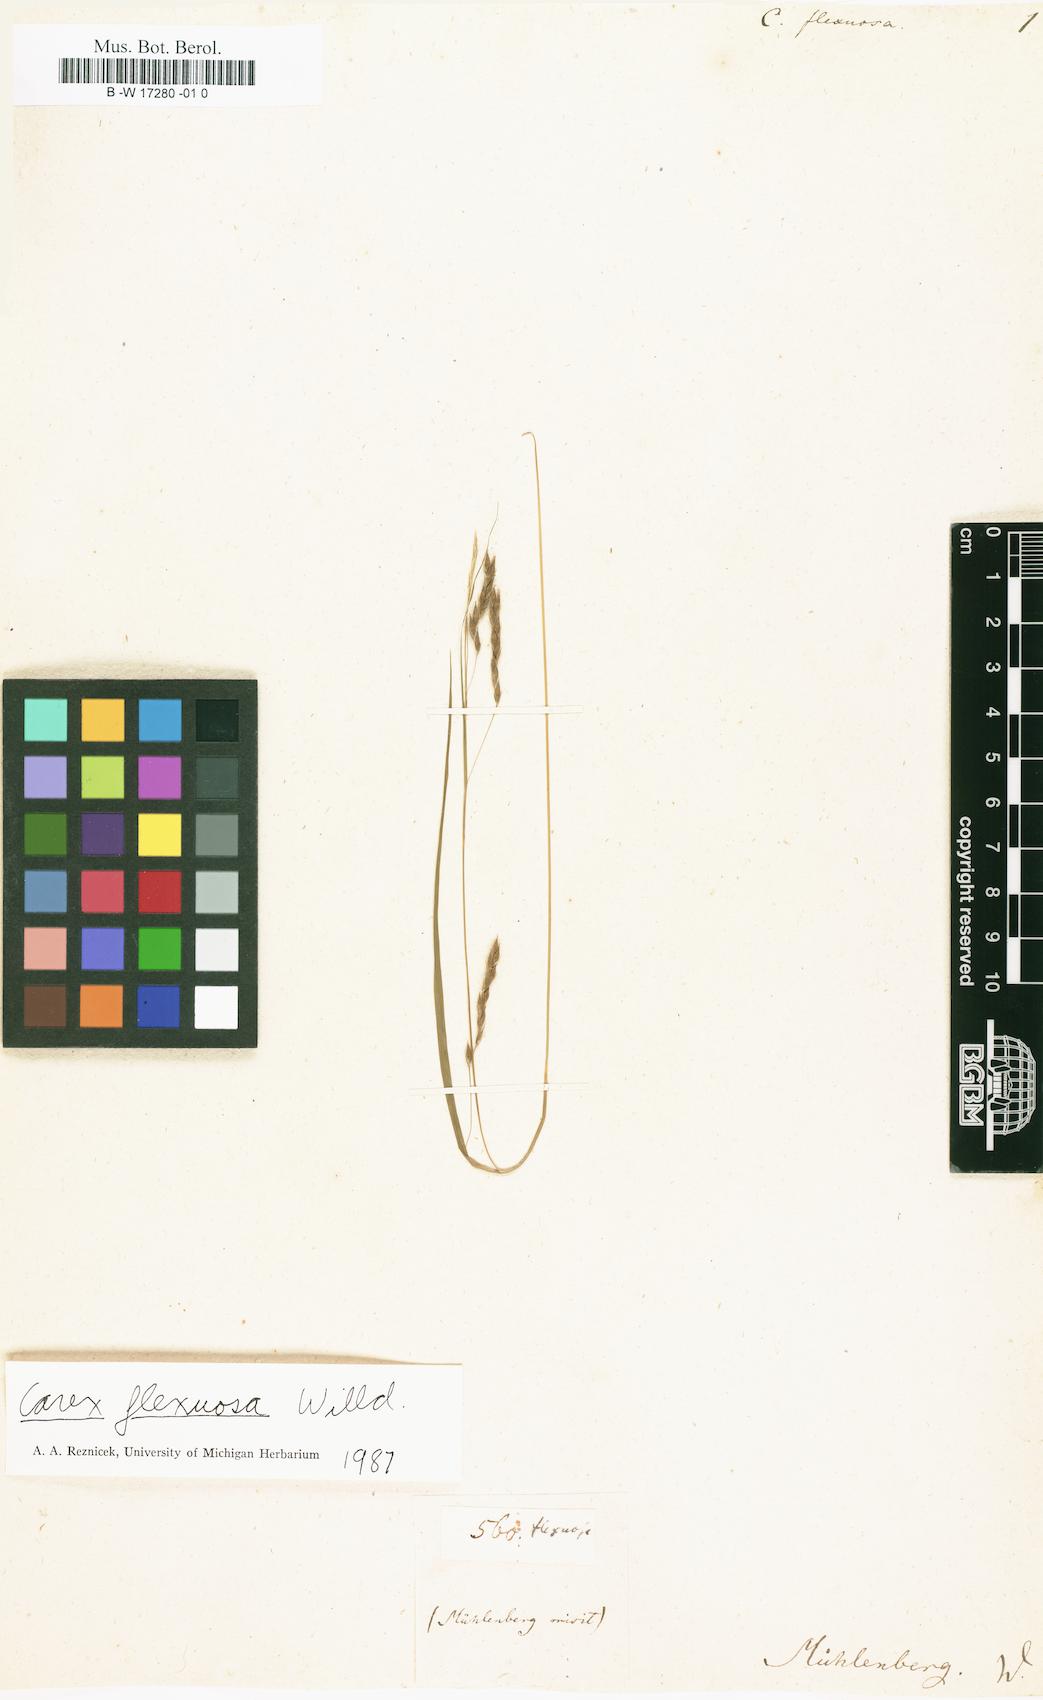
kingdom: Plantae
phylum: Tracheophyta
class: Liliopsida
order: Poales
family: Cyperaceae
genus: Carex
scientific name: Carex flexuosa
